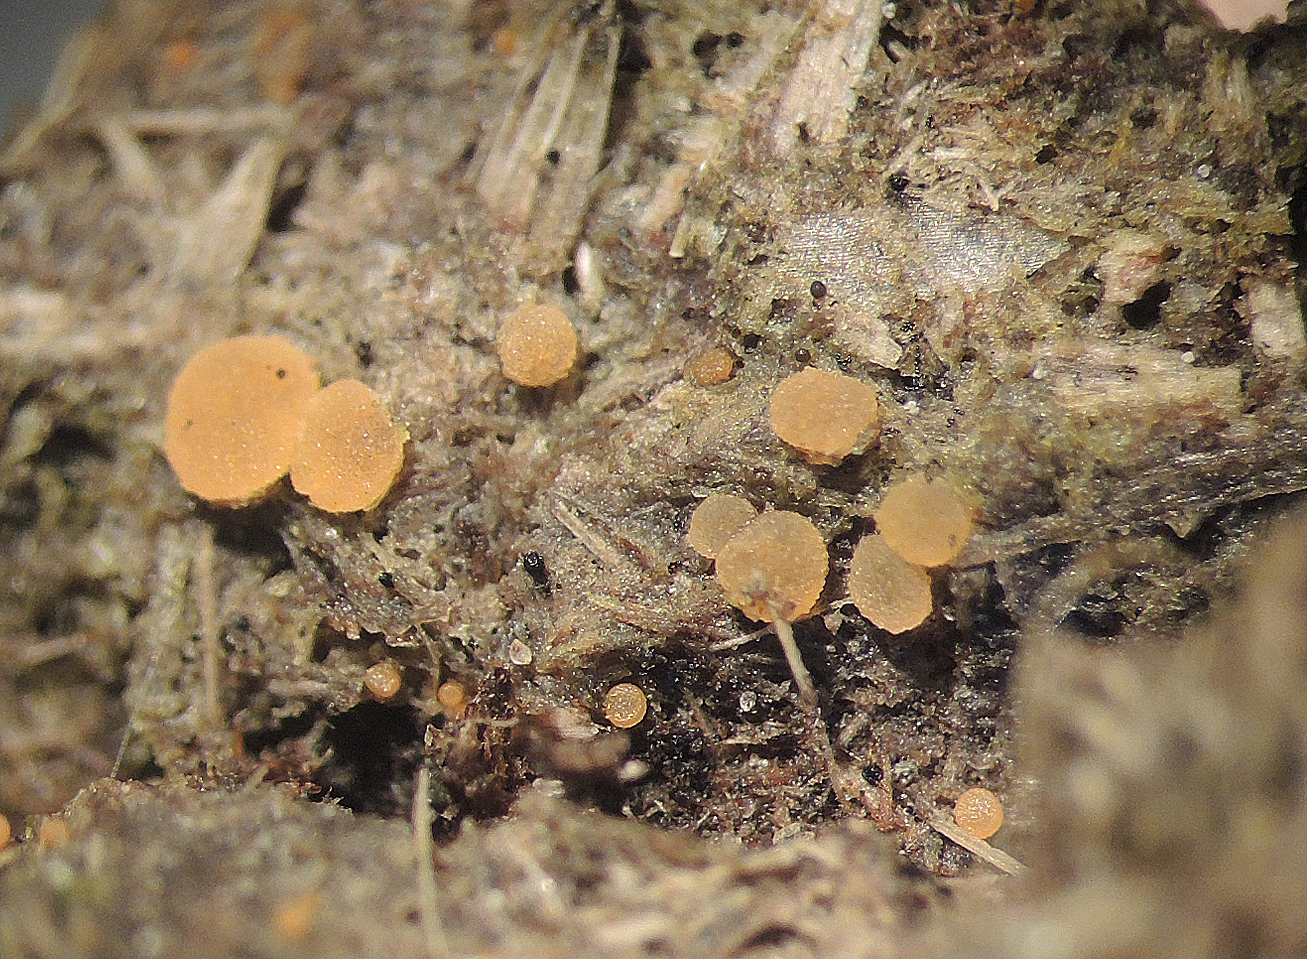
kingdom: Fungi
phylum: Ascomycota
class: Pezizomycetes
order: Pezizales
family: Pezizaceae
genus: Iodophanus
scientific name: Iodophanus carneus
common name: kødfarvet prikbæger
